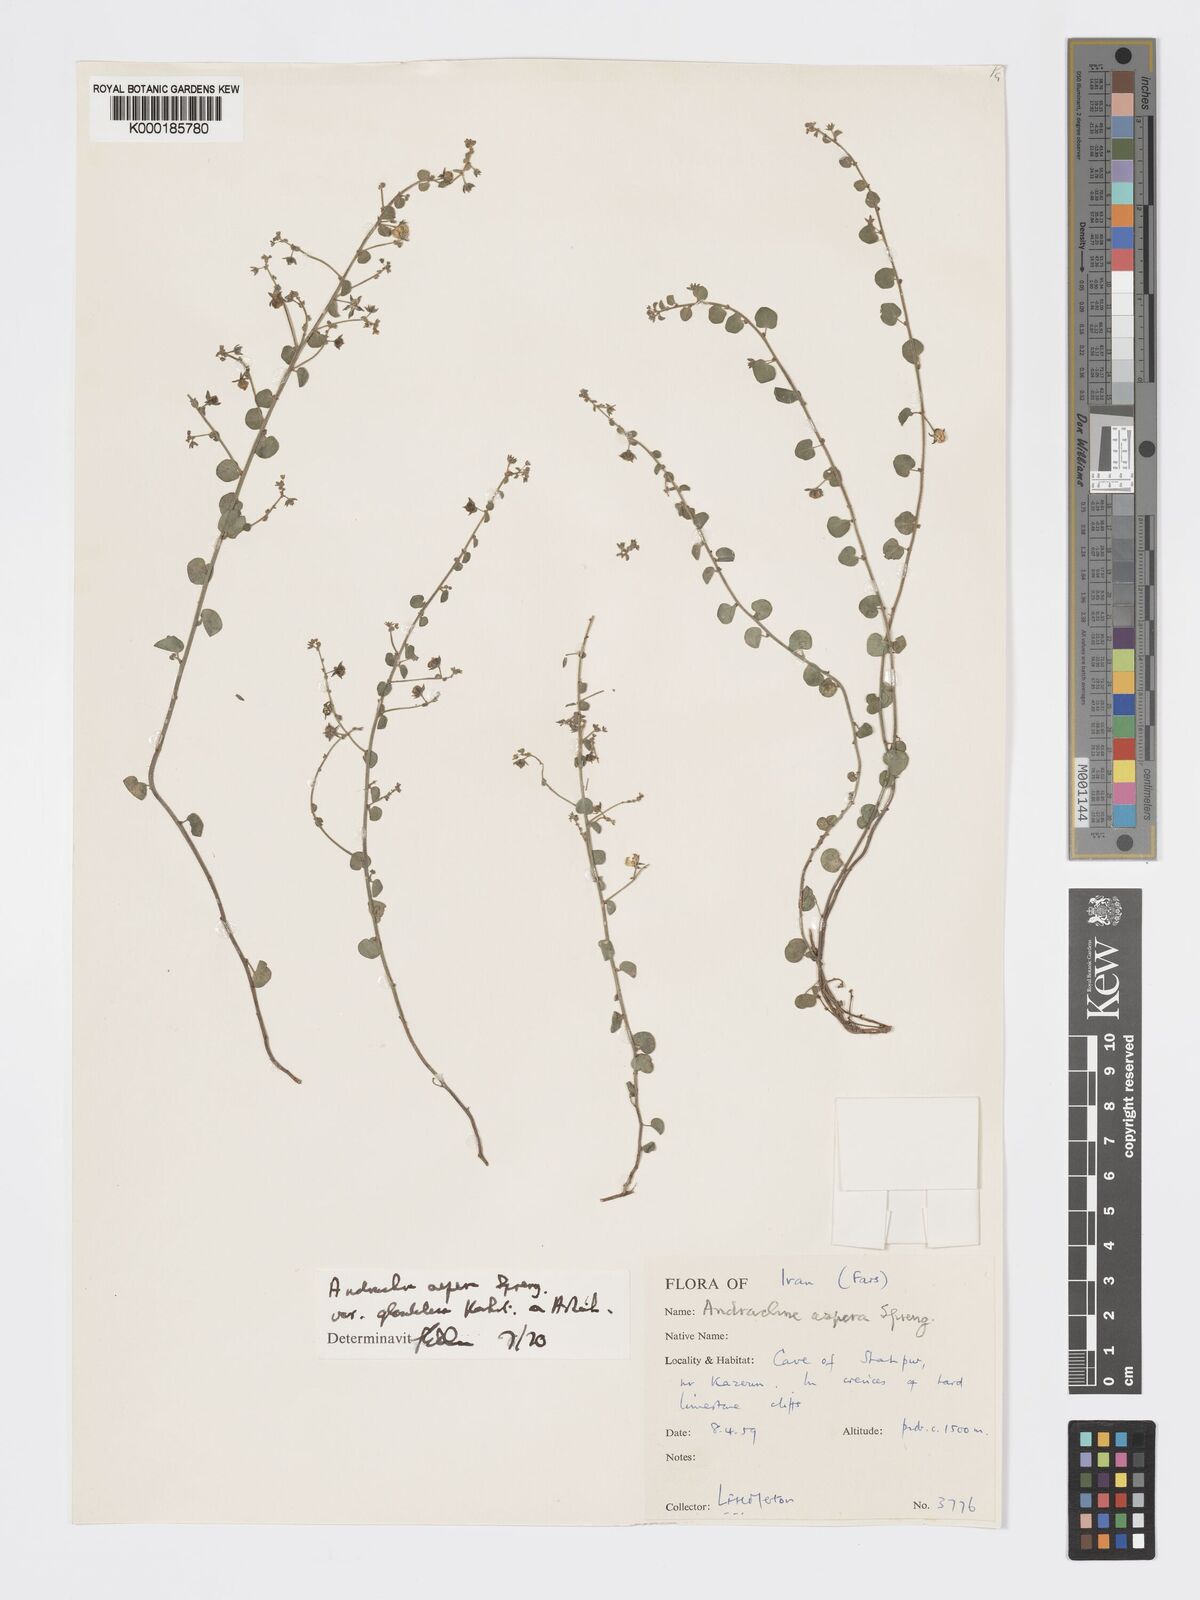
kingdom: Plantae
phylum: Tracheophyta
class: Magnoliopsida
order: Malpighiales
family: Phyllanthaceae
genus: Andrachne
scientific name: Andrachne aspera
